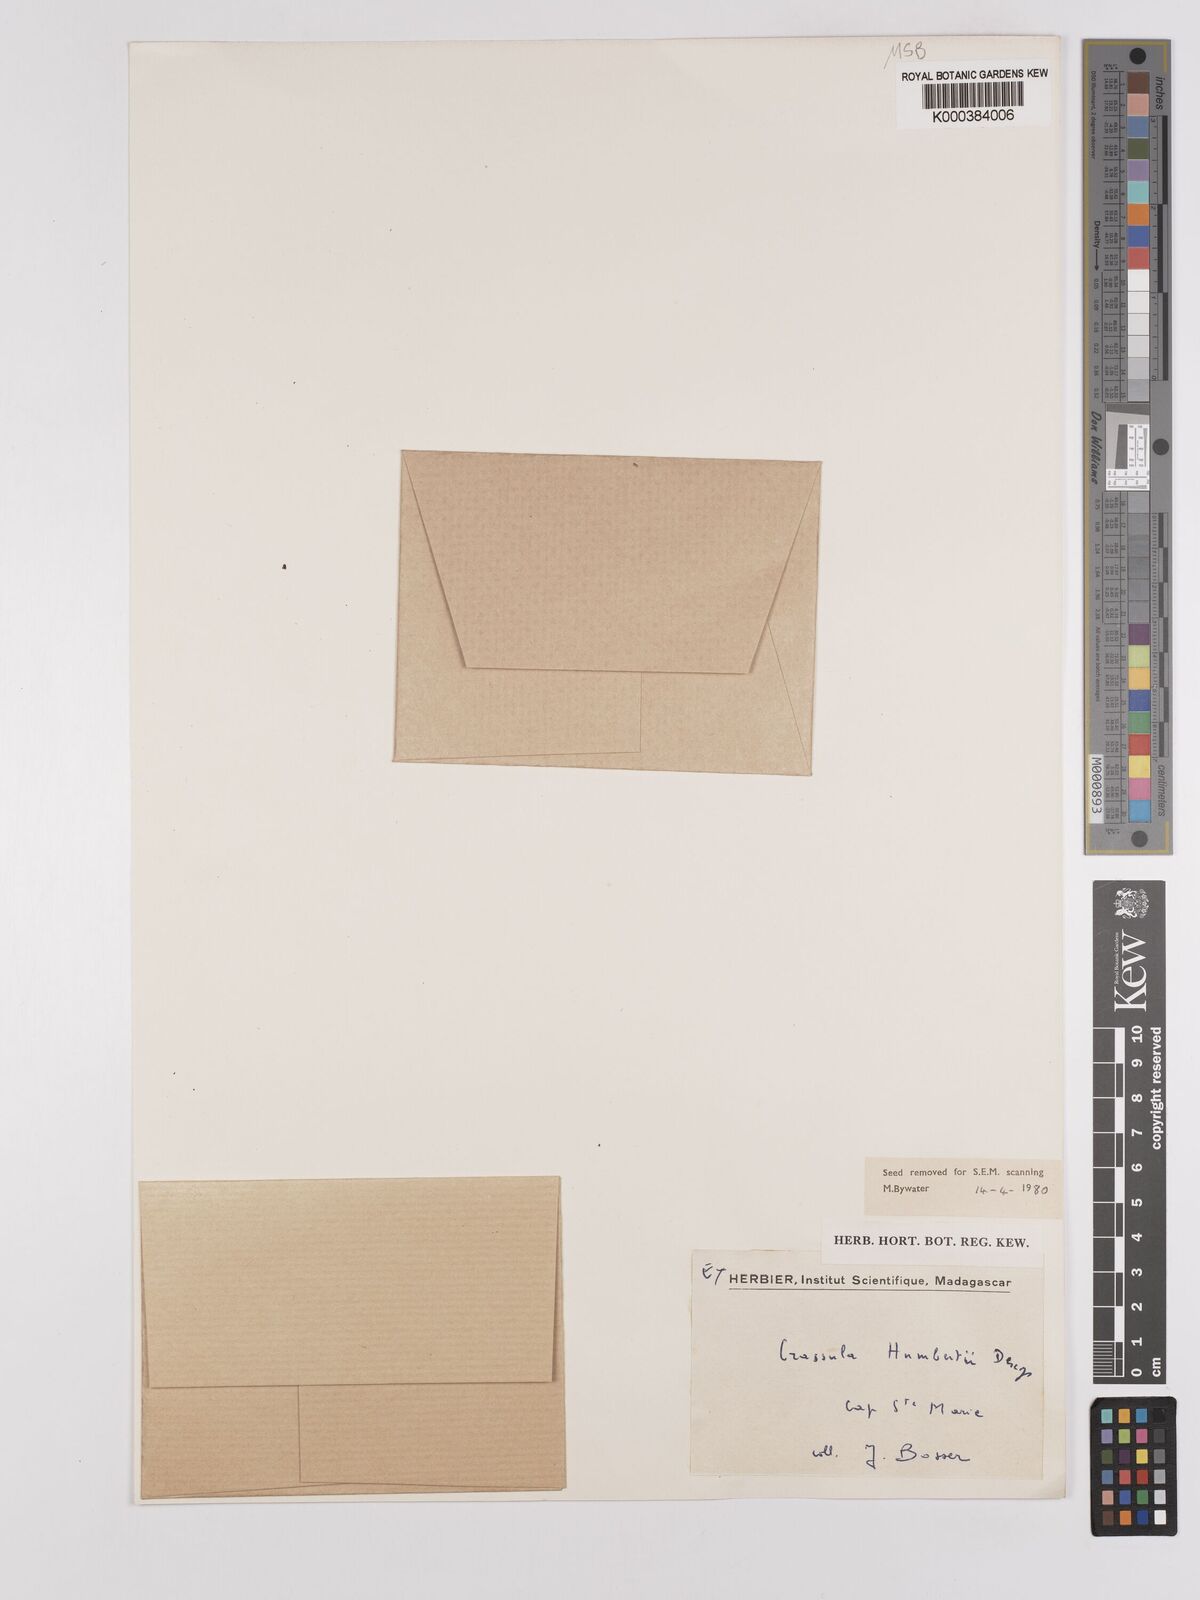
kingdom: Plantae
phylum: Tracheophyta
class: Magnoliopsida
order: Saxifragales
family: Crassulaceae
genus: Crassula
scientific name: Crassula cordifolia
